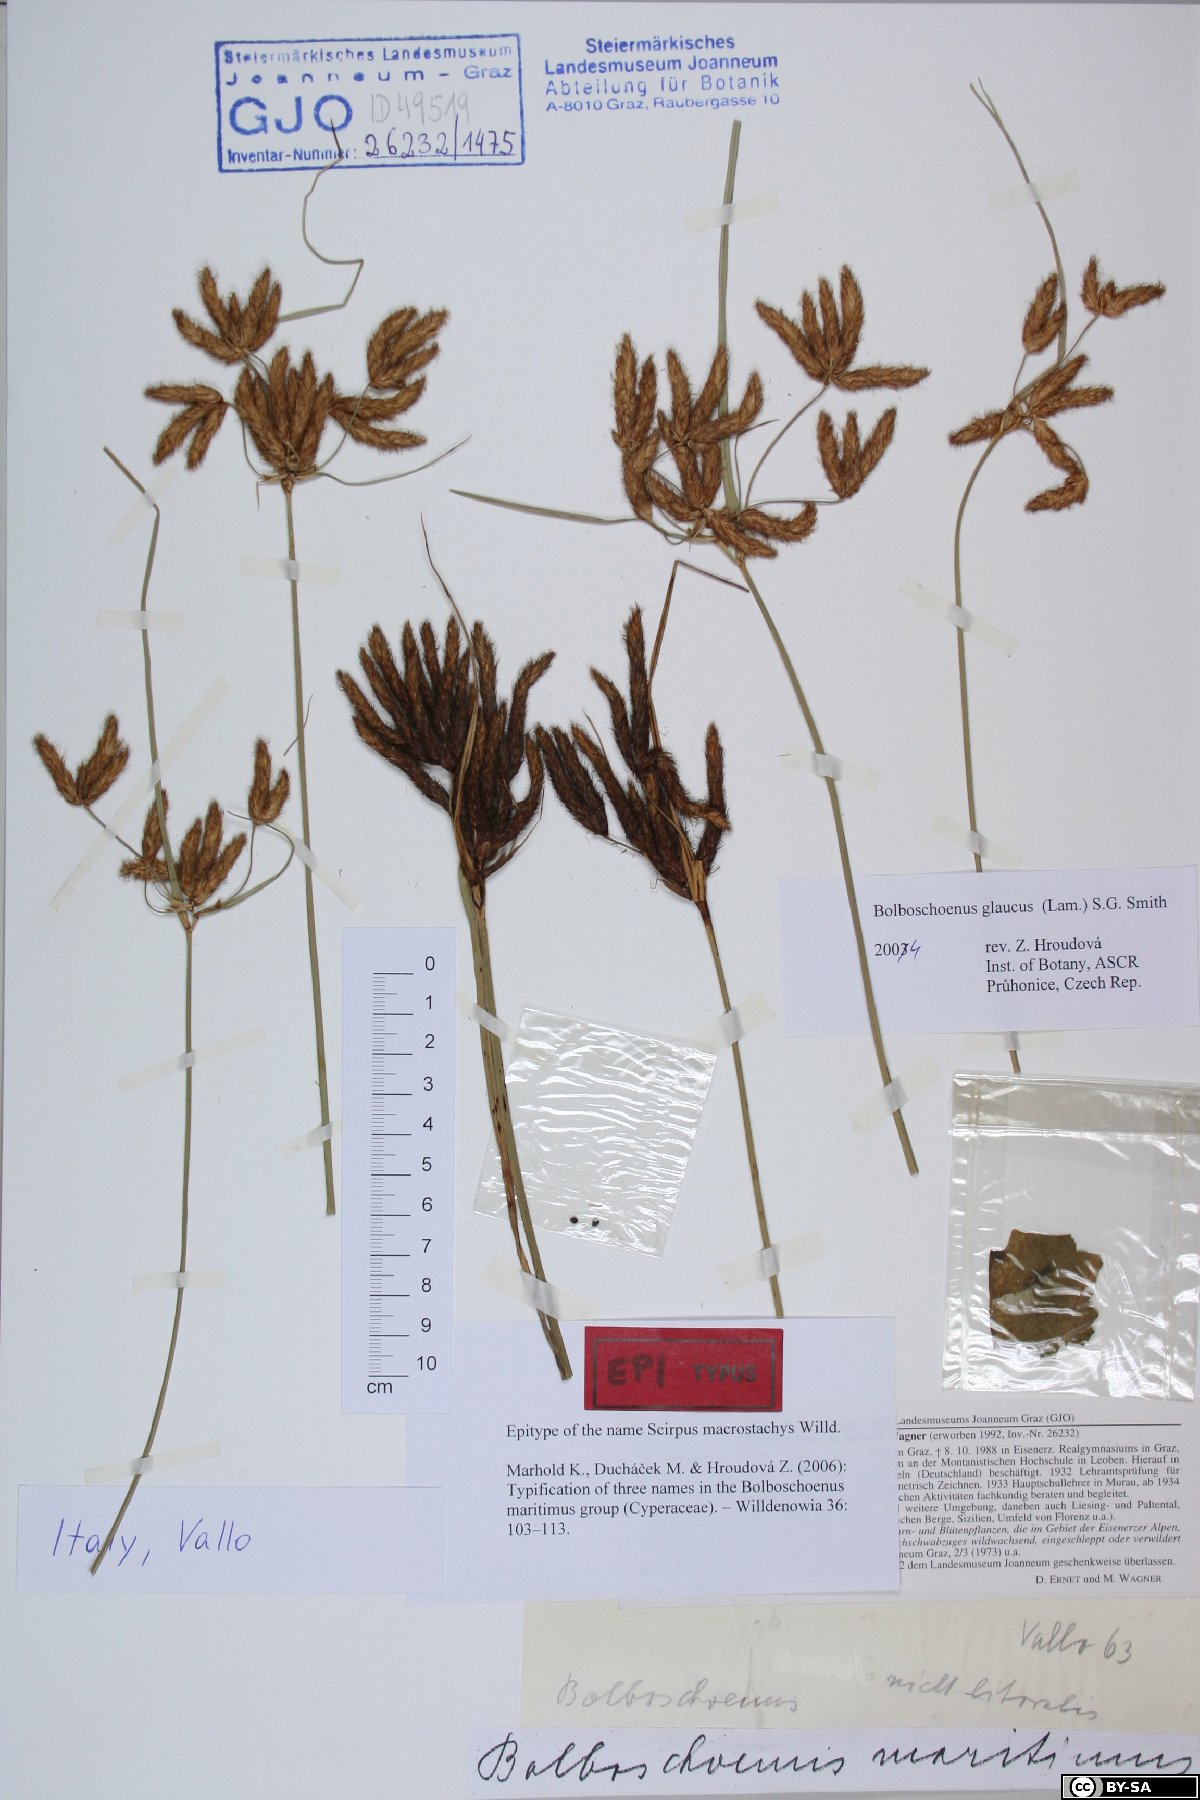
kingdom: Plantae
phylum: Tracheophyta
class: Liliopsida
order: Poales
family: Cyperaceae
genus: Bolboschoenus
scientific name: Bolboschoenus glaucus
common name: Tuberous bulrush
